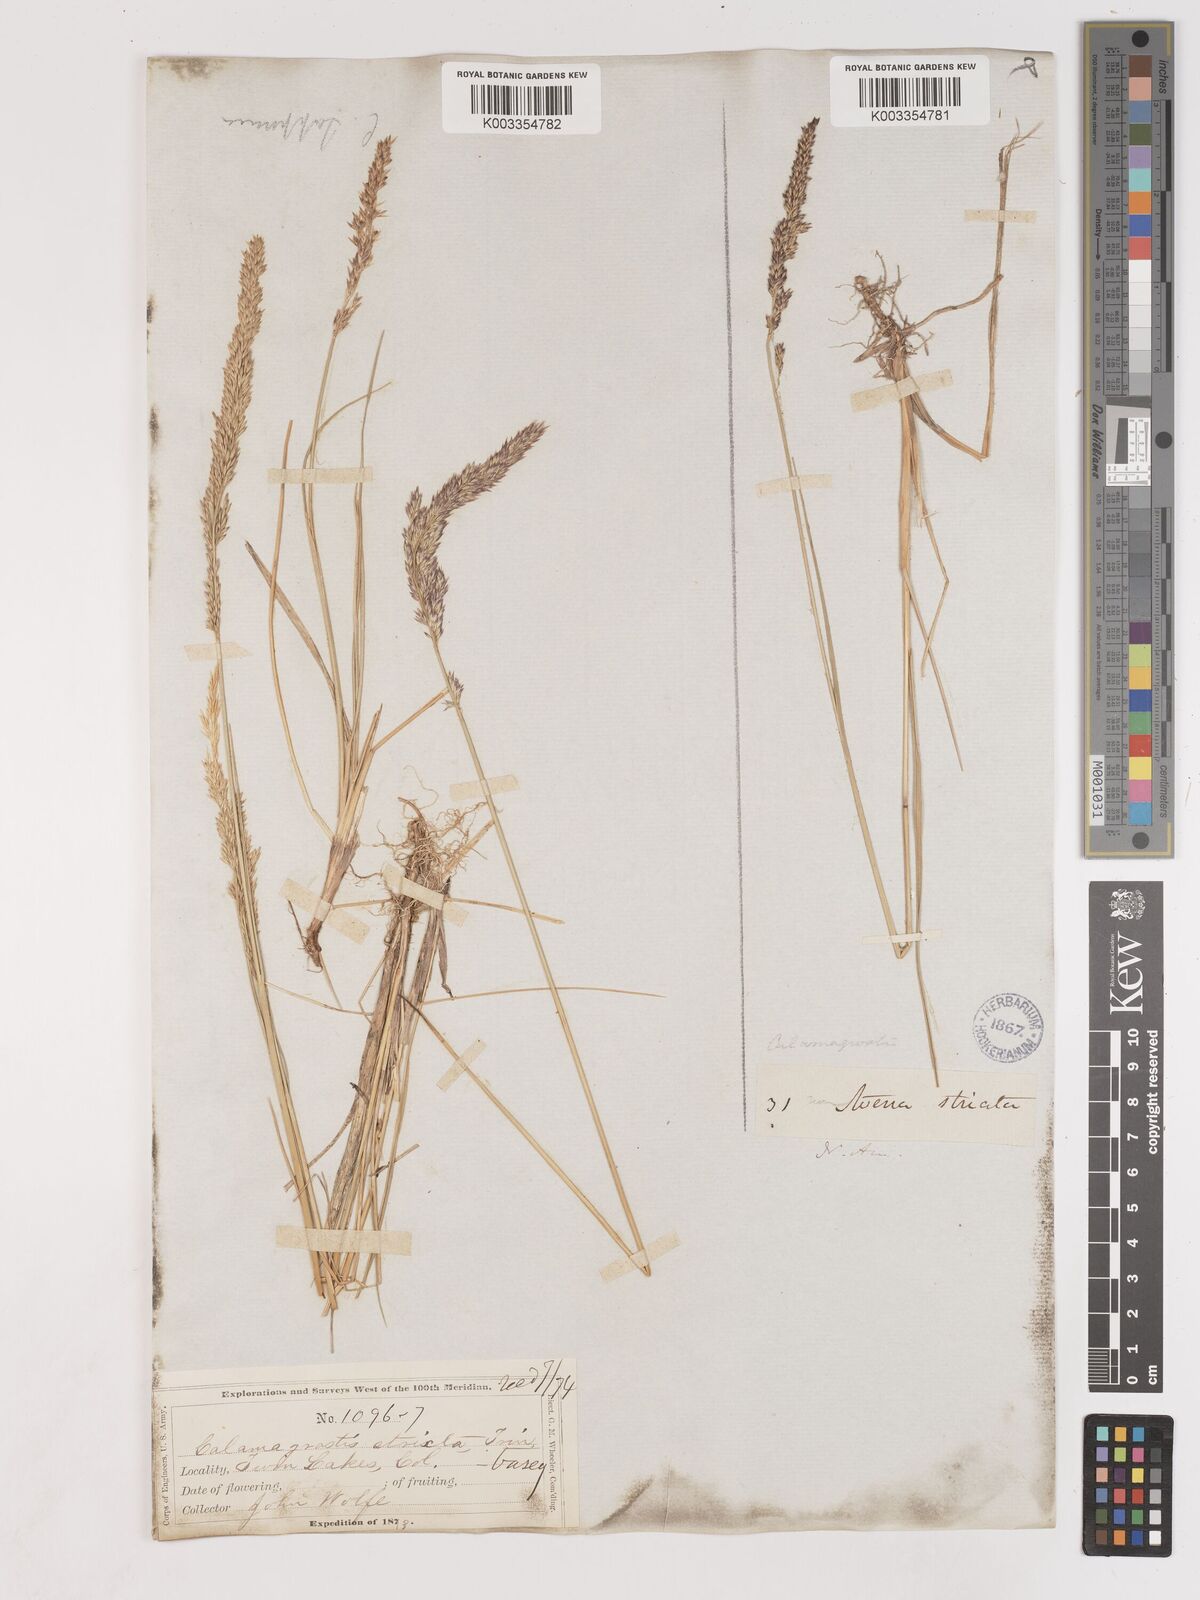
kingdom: Plantae
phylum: Tracheophyta
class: Liliopsida
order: Poales
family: Poaceae
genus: Cinnagrostis
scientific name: Cinnagrostis recta
